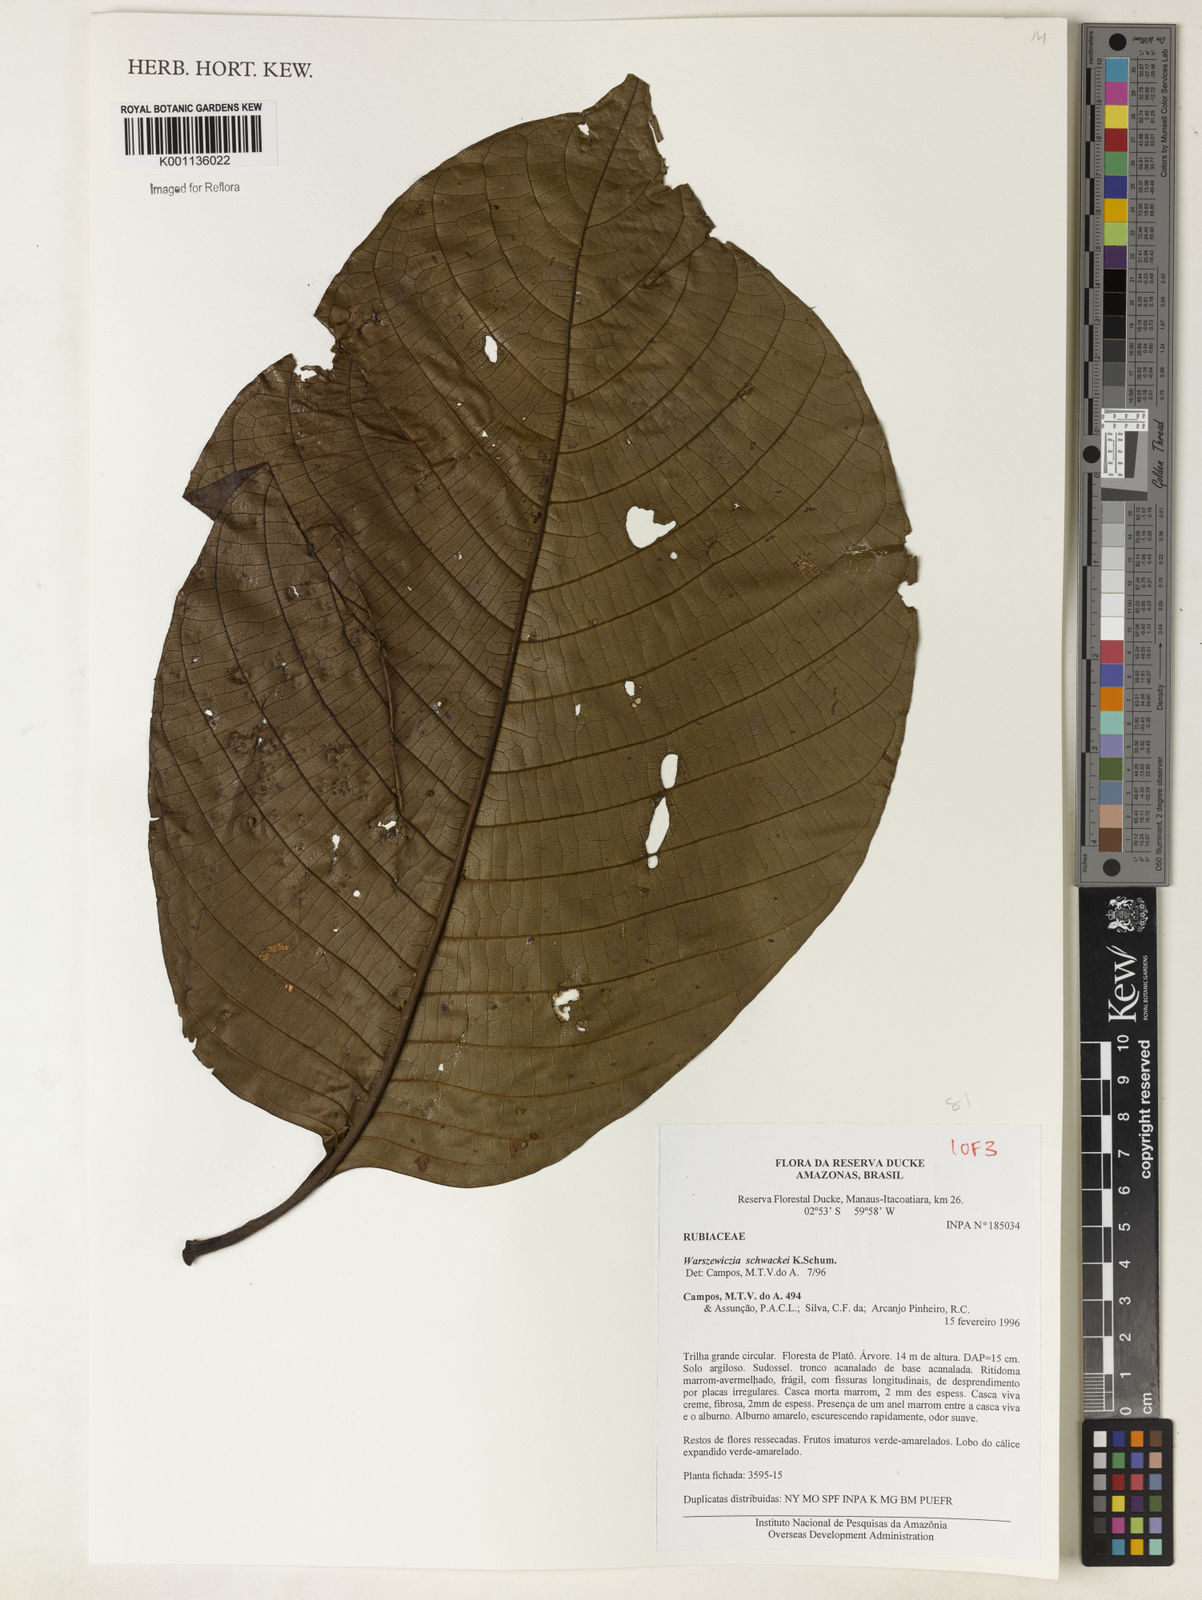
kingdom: Plantae
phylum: Tracheophyta
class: Magnoliopsida
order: Gentianales
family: Rubiaceae
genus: Warszewiczia
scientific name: Warszewiczia schwackei
